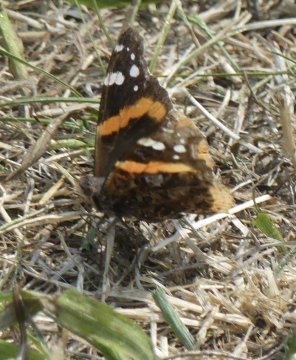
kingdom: Animalia
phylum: Arthropoda
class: Insecta
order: Lepidoptera
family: Nymphalidae
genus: Vanessa
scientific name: Vanessa atalanta
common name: Red Admiral
